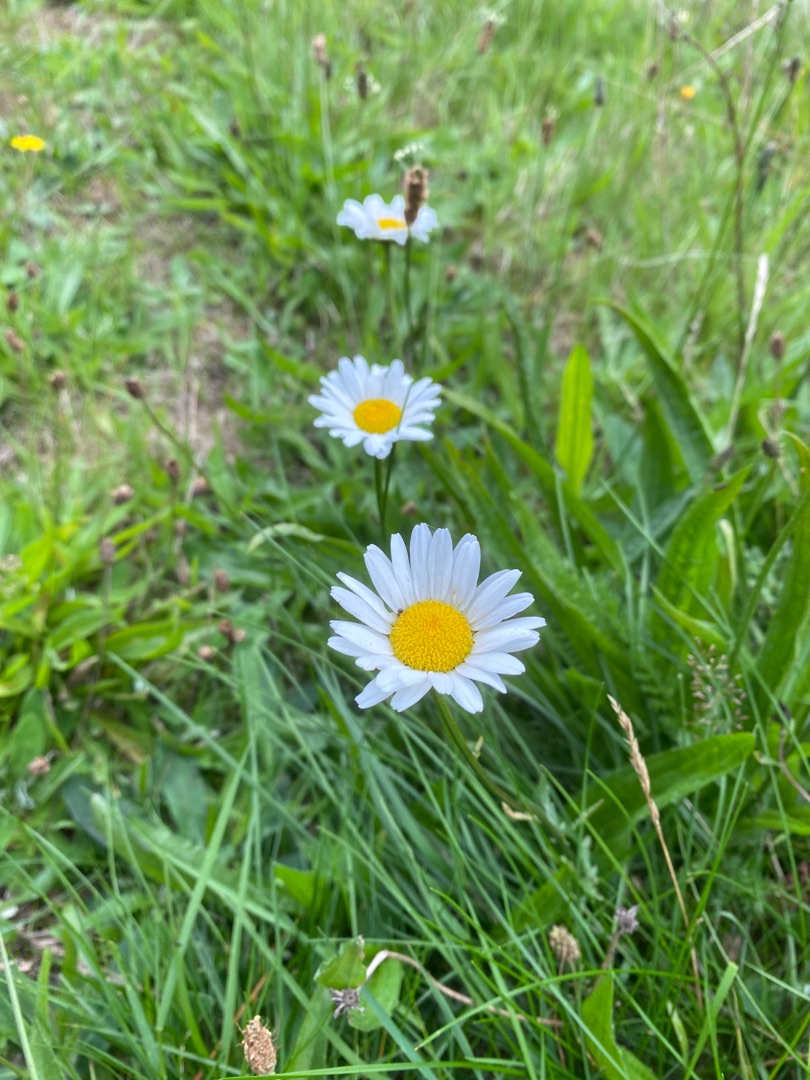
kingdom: Plantae
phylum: Tracheophyta
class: Magnoliopsida
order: Asterales
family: Asteraceae
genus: Leucanthemum
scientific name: Leucanthemum vulgare
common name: Hvid okseøje
